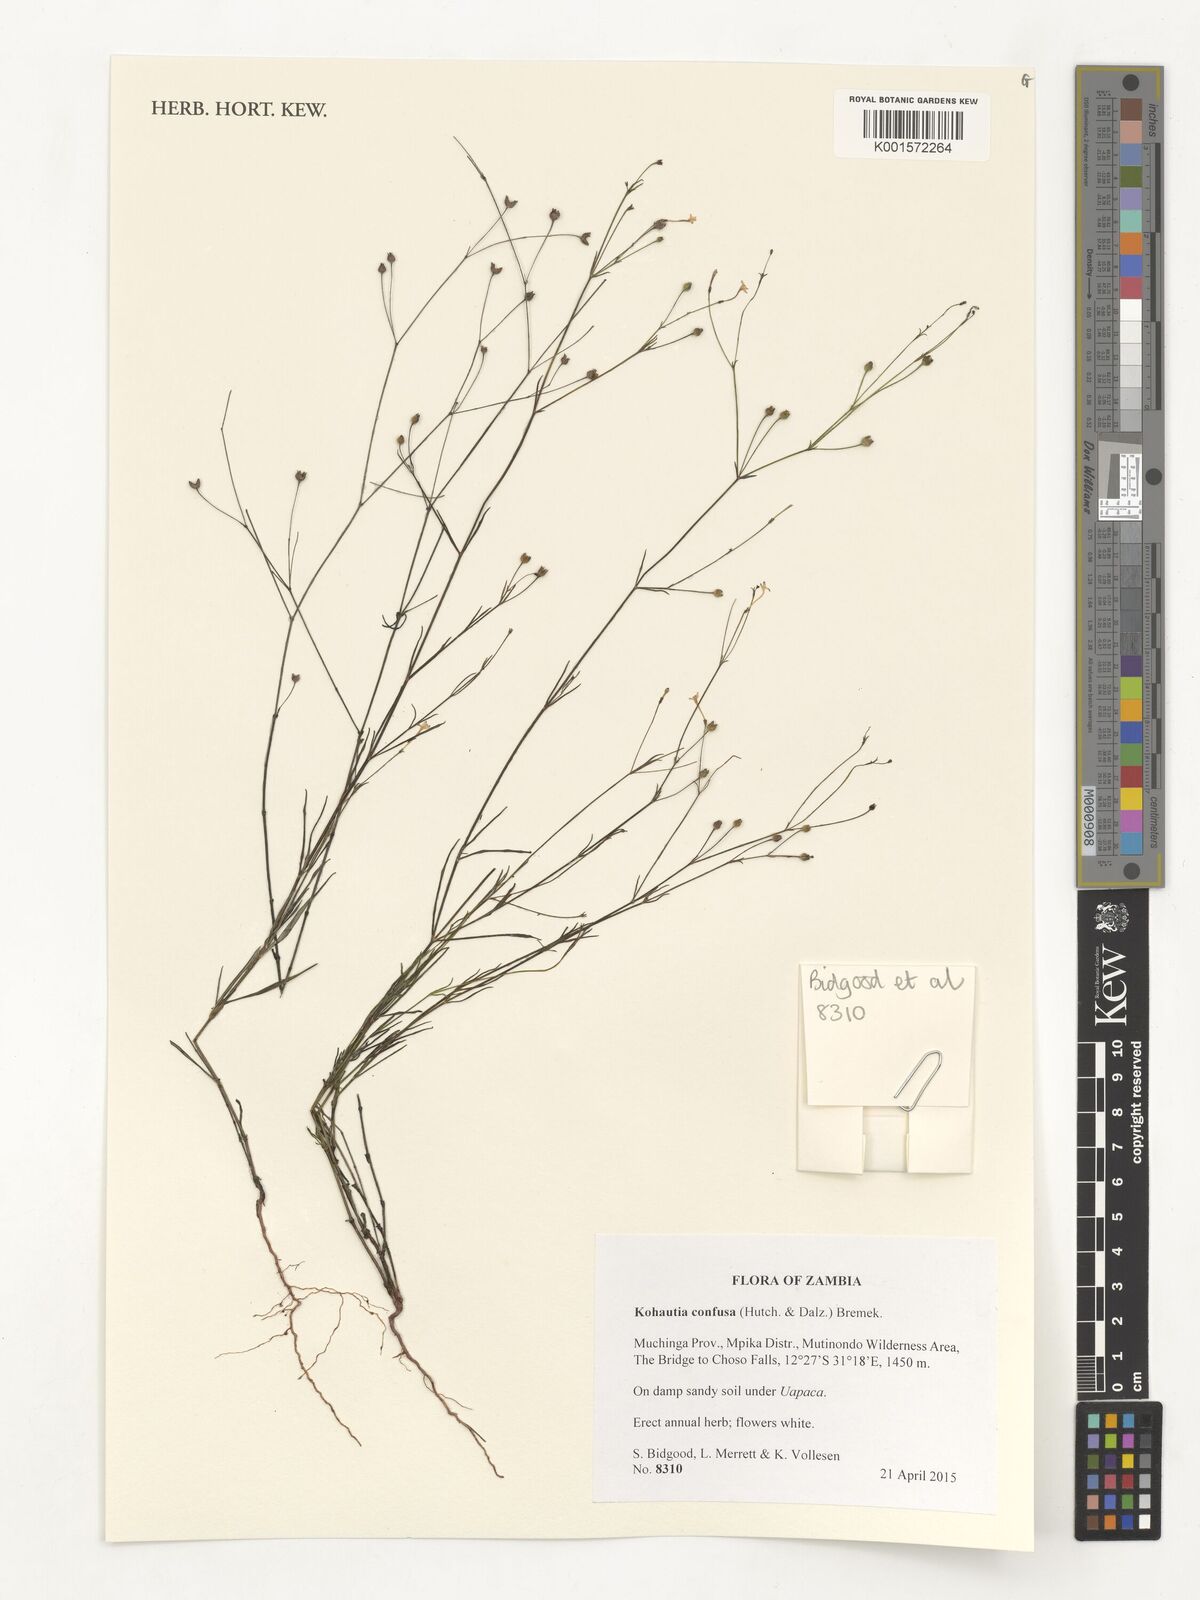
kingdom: Plantae
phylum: Tracheophyta
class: Magnoliopsida
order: Gentianales
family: Rubiaceae
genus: Kohautia
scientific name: Kohautia confusa
